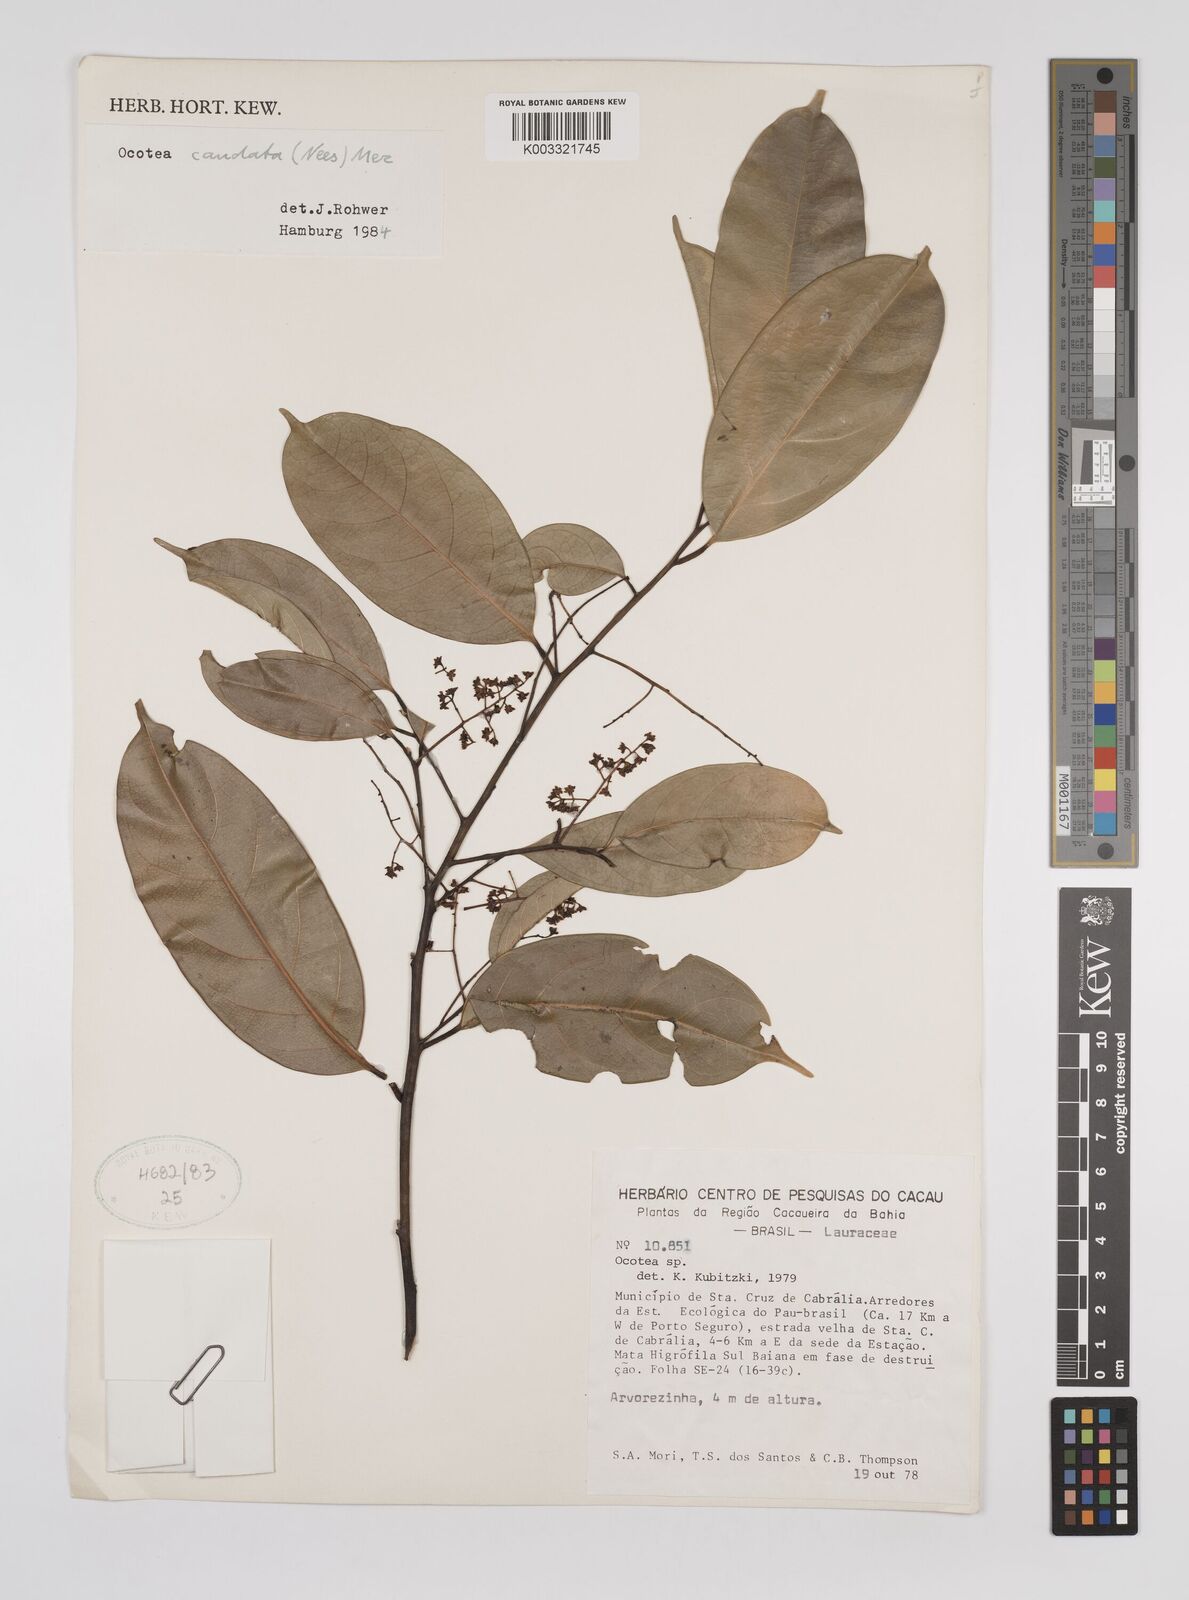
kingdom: Plantae
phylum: Tracheophyta
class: Magnoliopsida
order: Laurales
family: Lauraceae
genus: Ocotea
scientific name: Ocotea leptobotra
